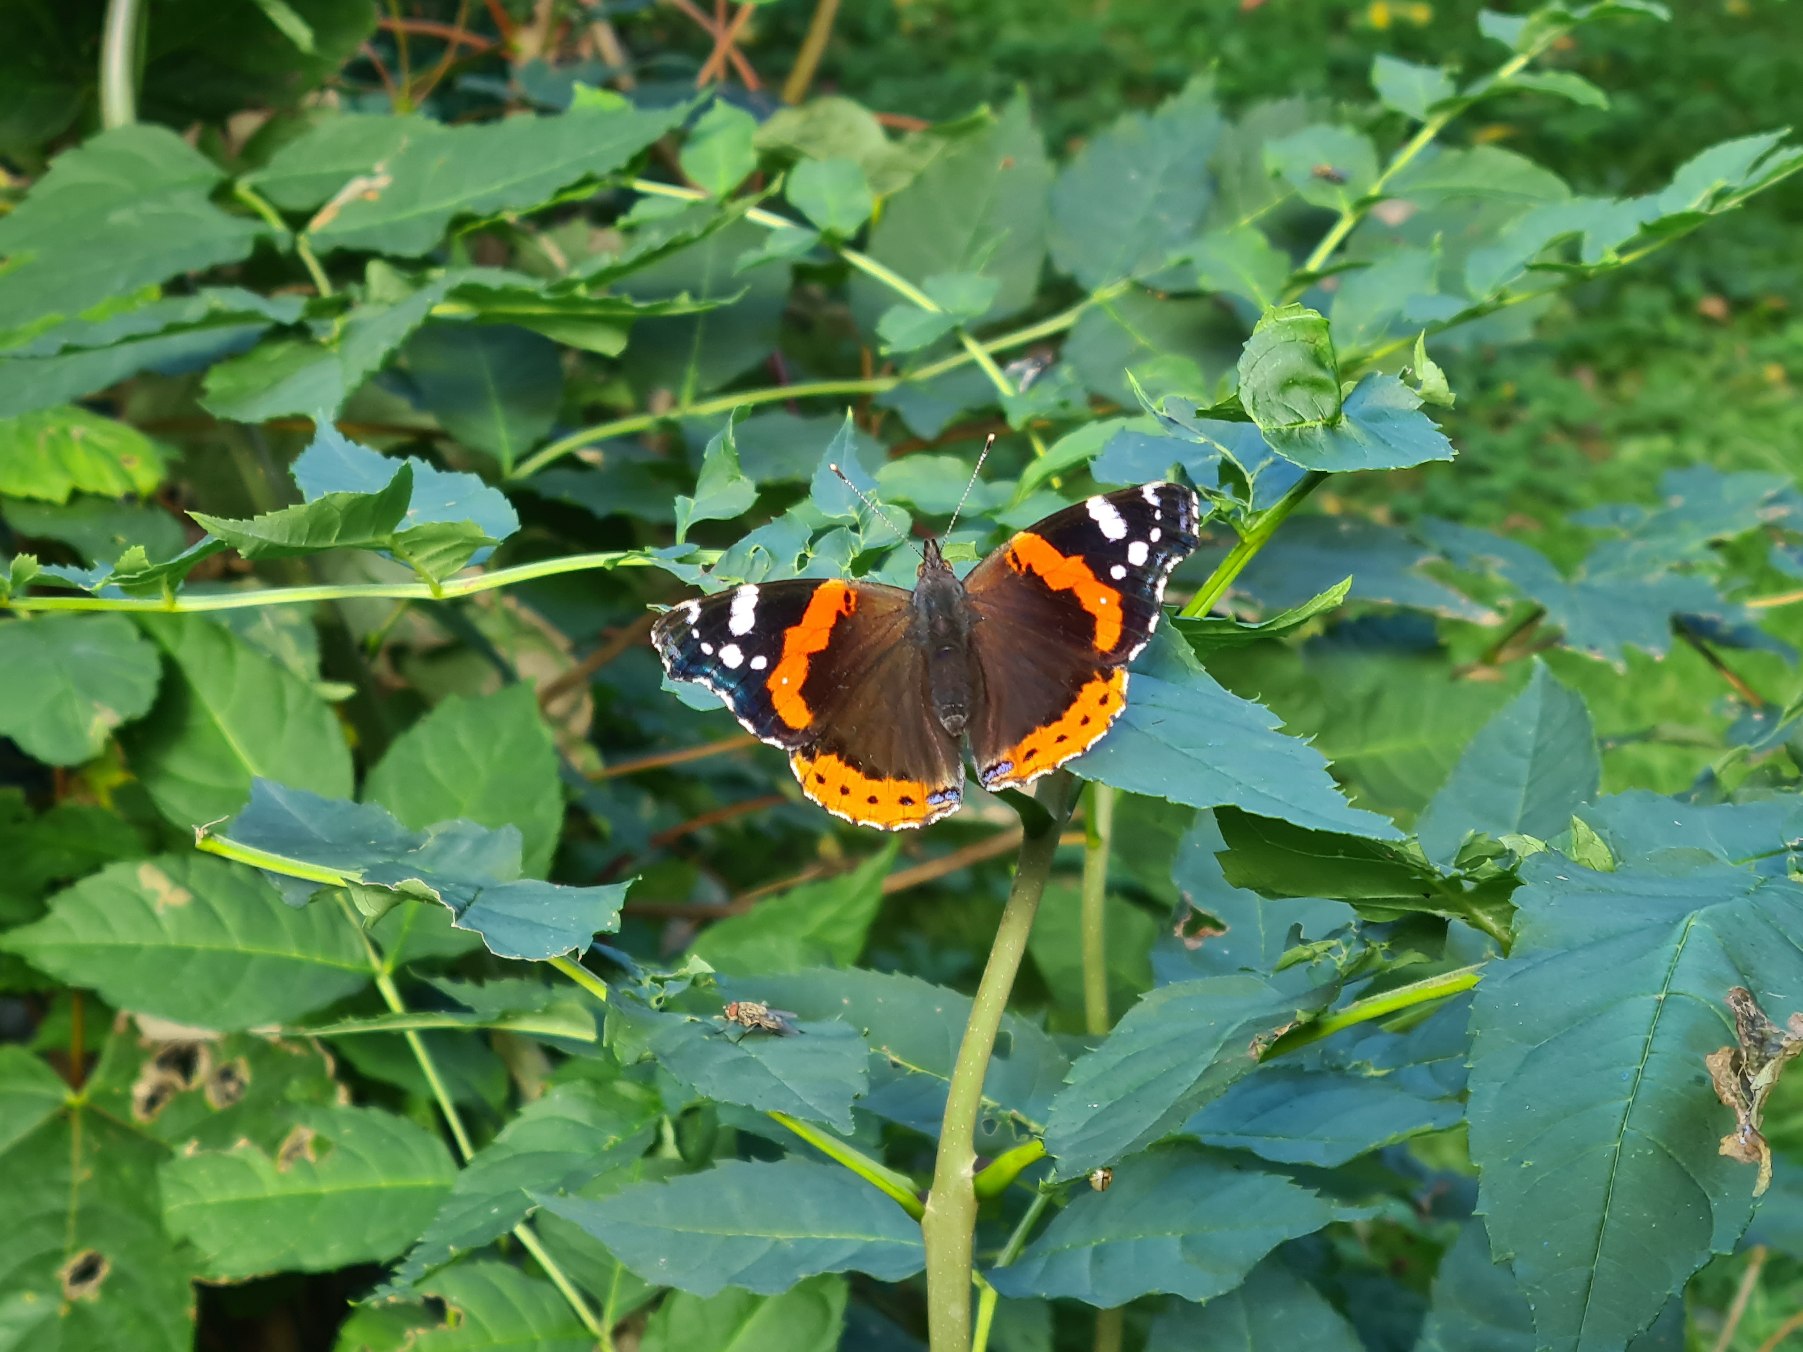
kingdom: Animalia
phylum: Arthropoda
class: Insecta
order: Lepidoptera
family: Nymphalidae
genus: Vanessa
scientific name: Vanessa atalanta
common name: Admiral
